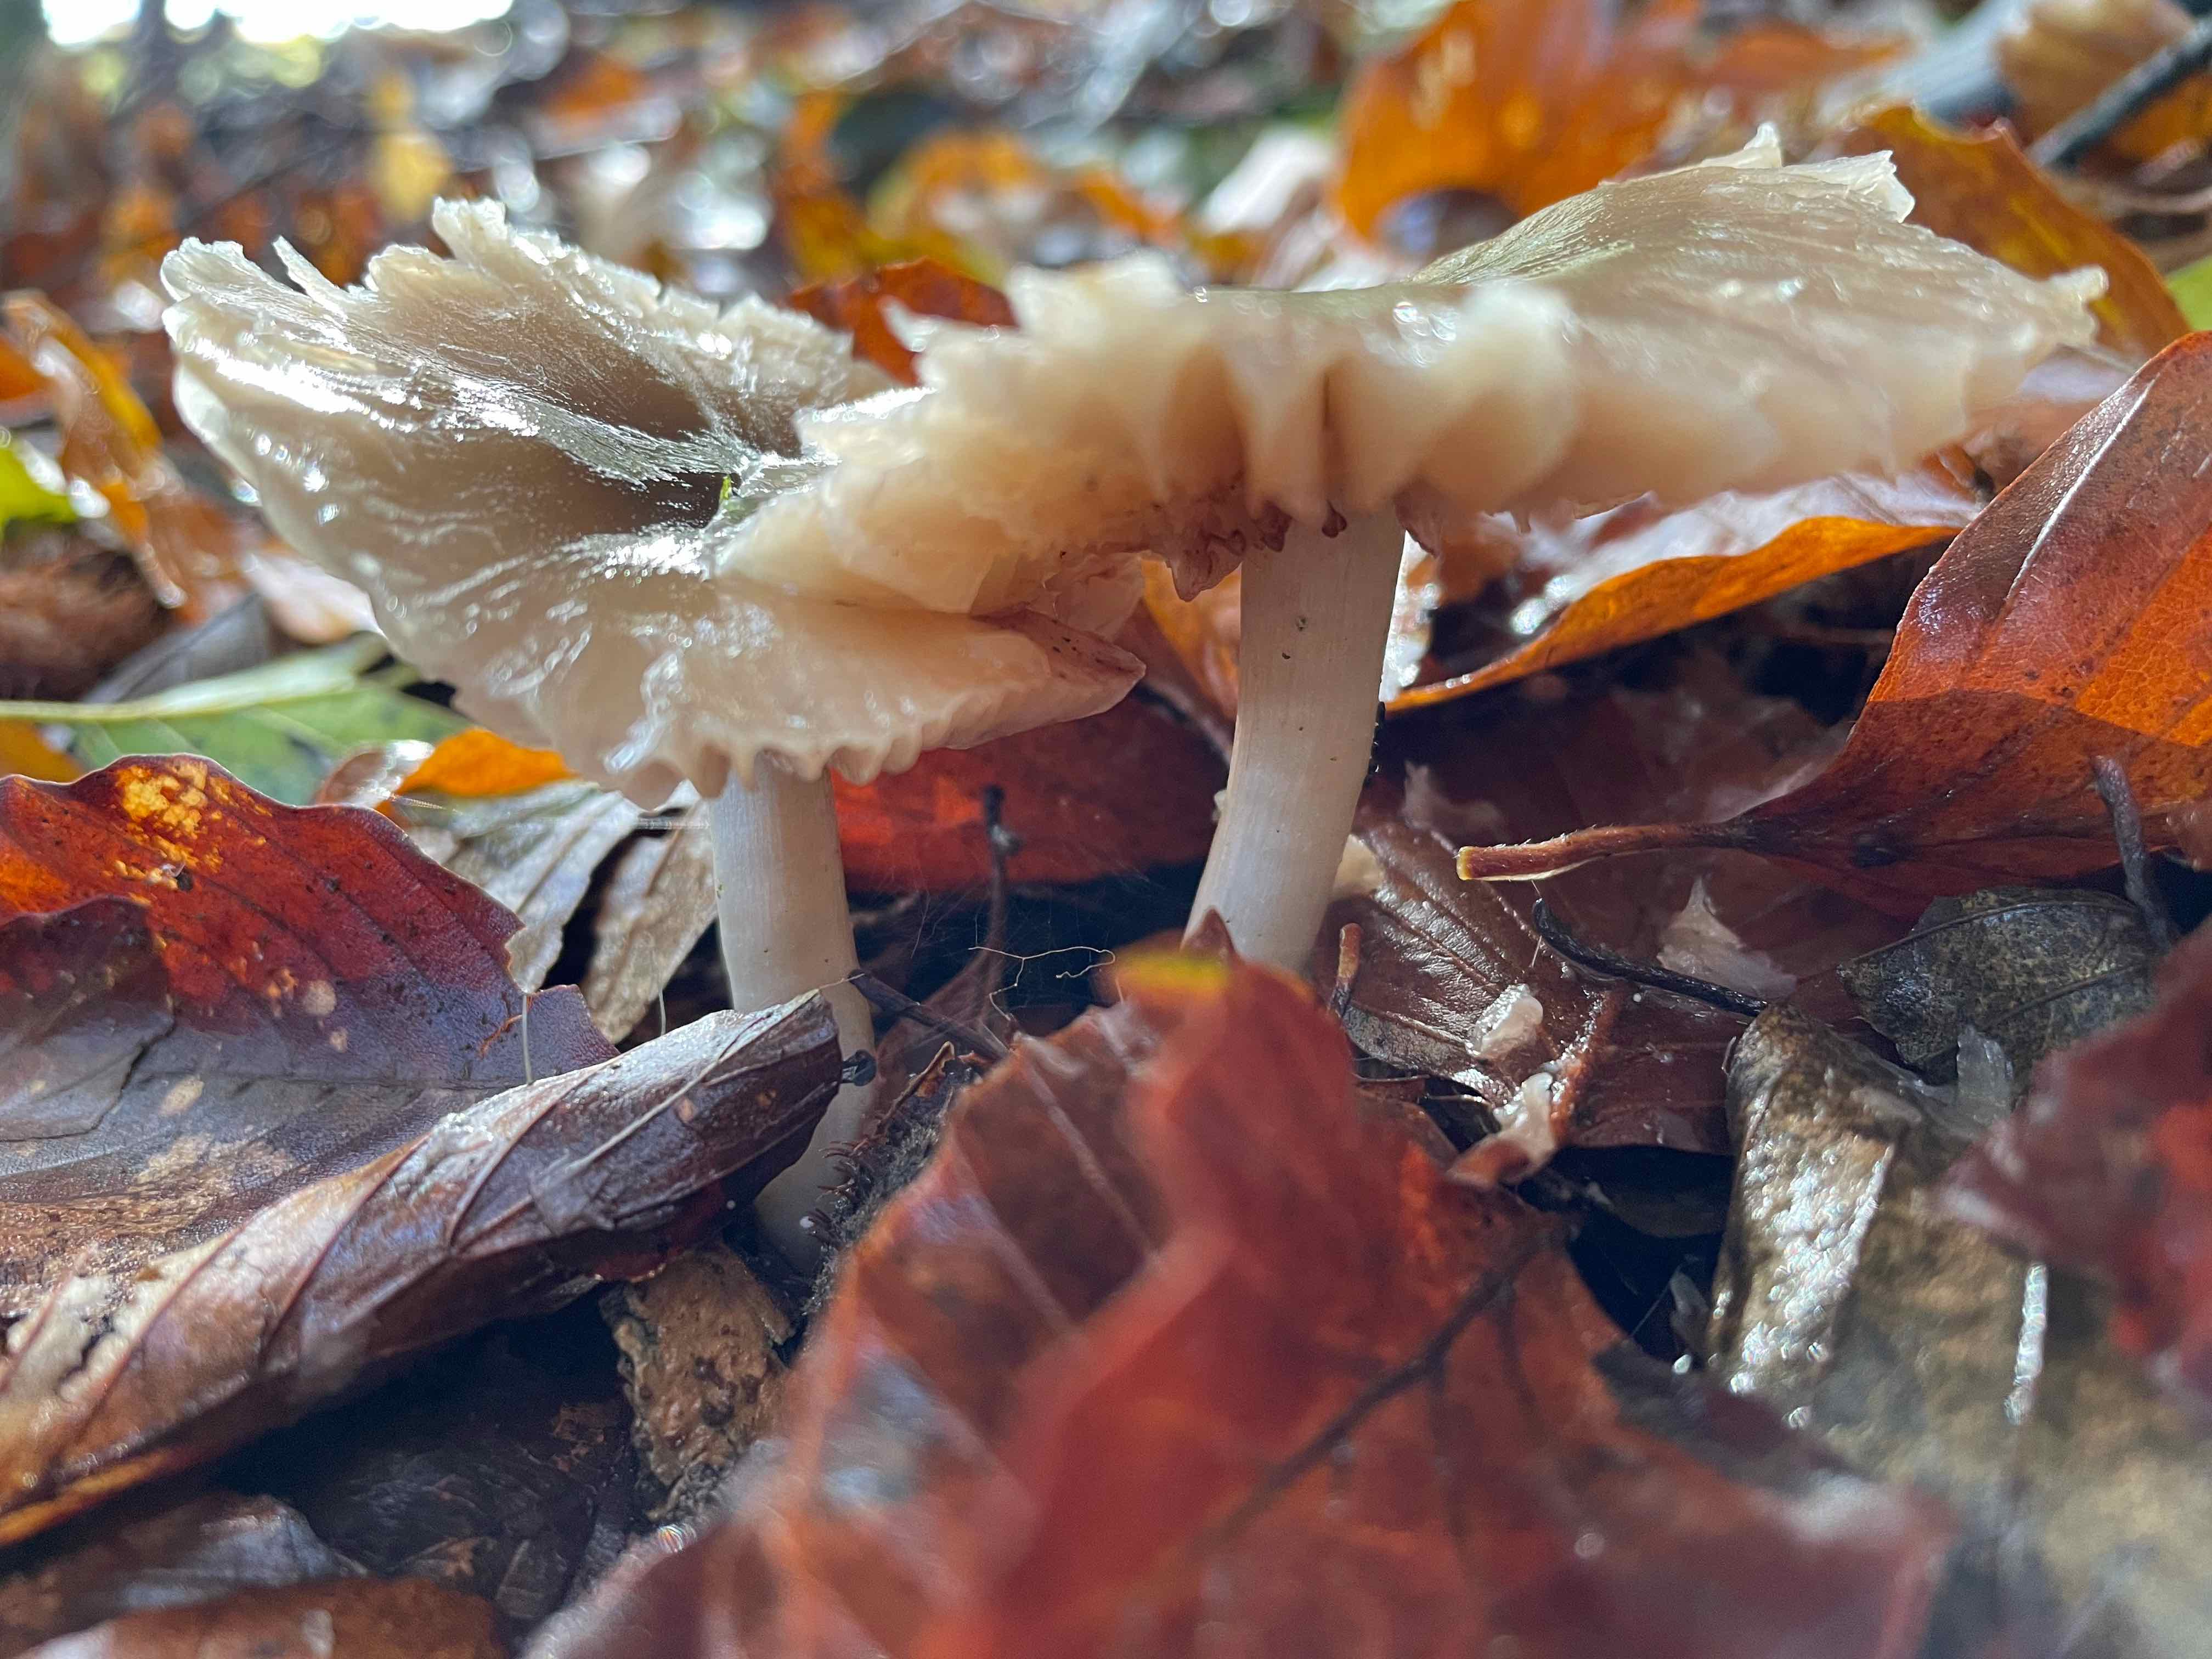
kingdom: Fungi
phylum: Basidiomycota
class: Agaricomycetes
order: Agaricales
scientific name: Agaricales
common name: champignonordenen
